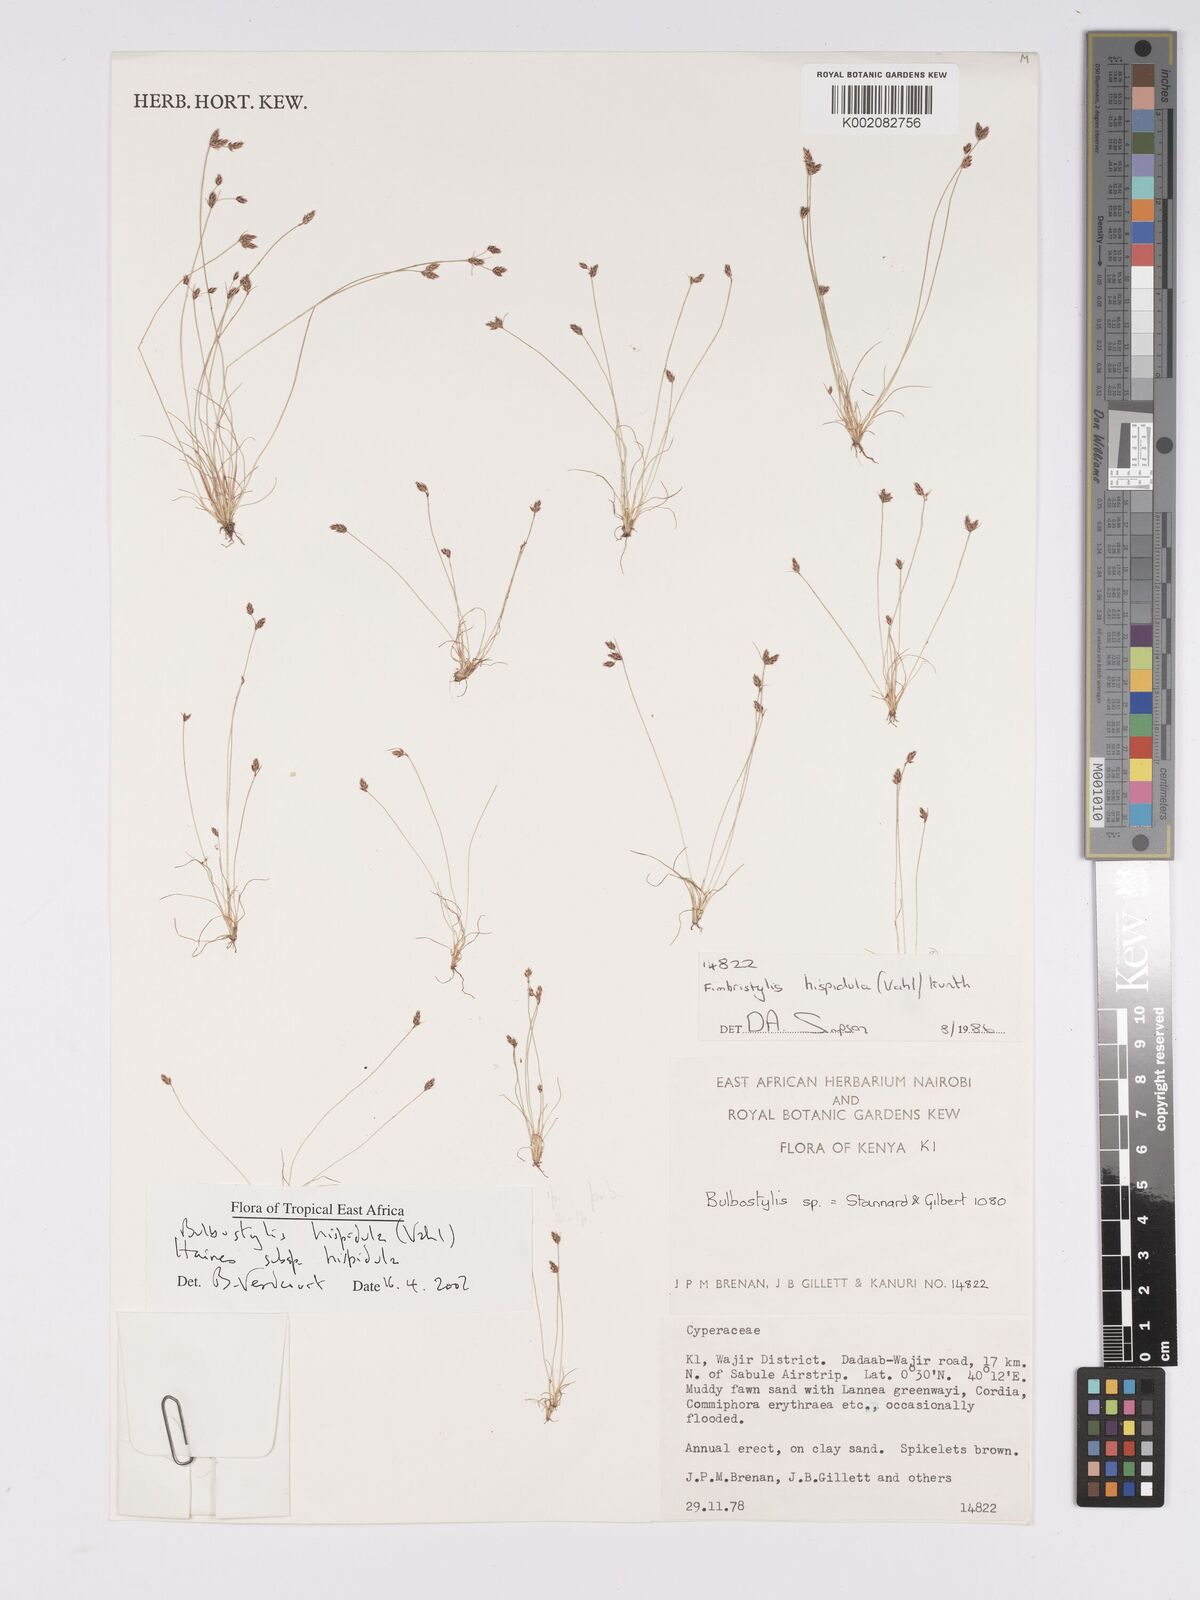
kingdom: Plantae
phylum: Tracheophyta
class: Liliopsida
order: Poales
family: Cyperaceae
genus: Bulbostylis
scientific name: Bulbostylis hispidula
